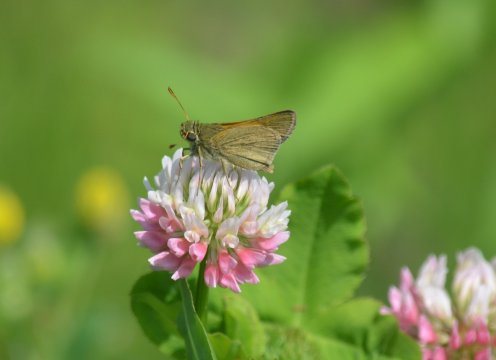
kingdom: Animalia
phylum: Arthropoda
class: Insecta
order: Lepidoptera
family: Hesperiidae
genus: Polites
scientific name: Polites themistocles
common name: Tawny-edged Skipper
